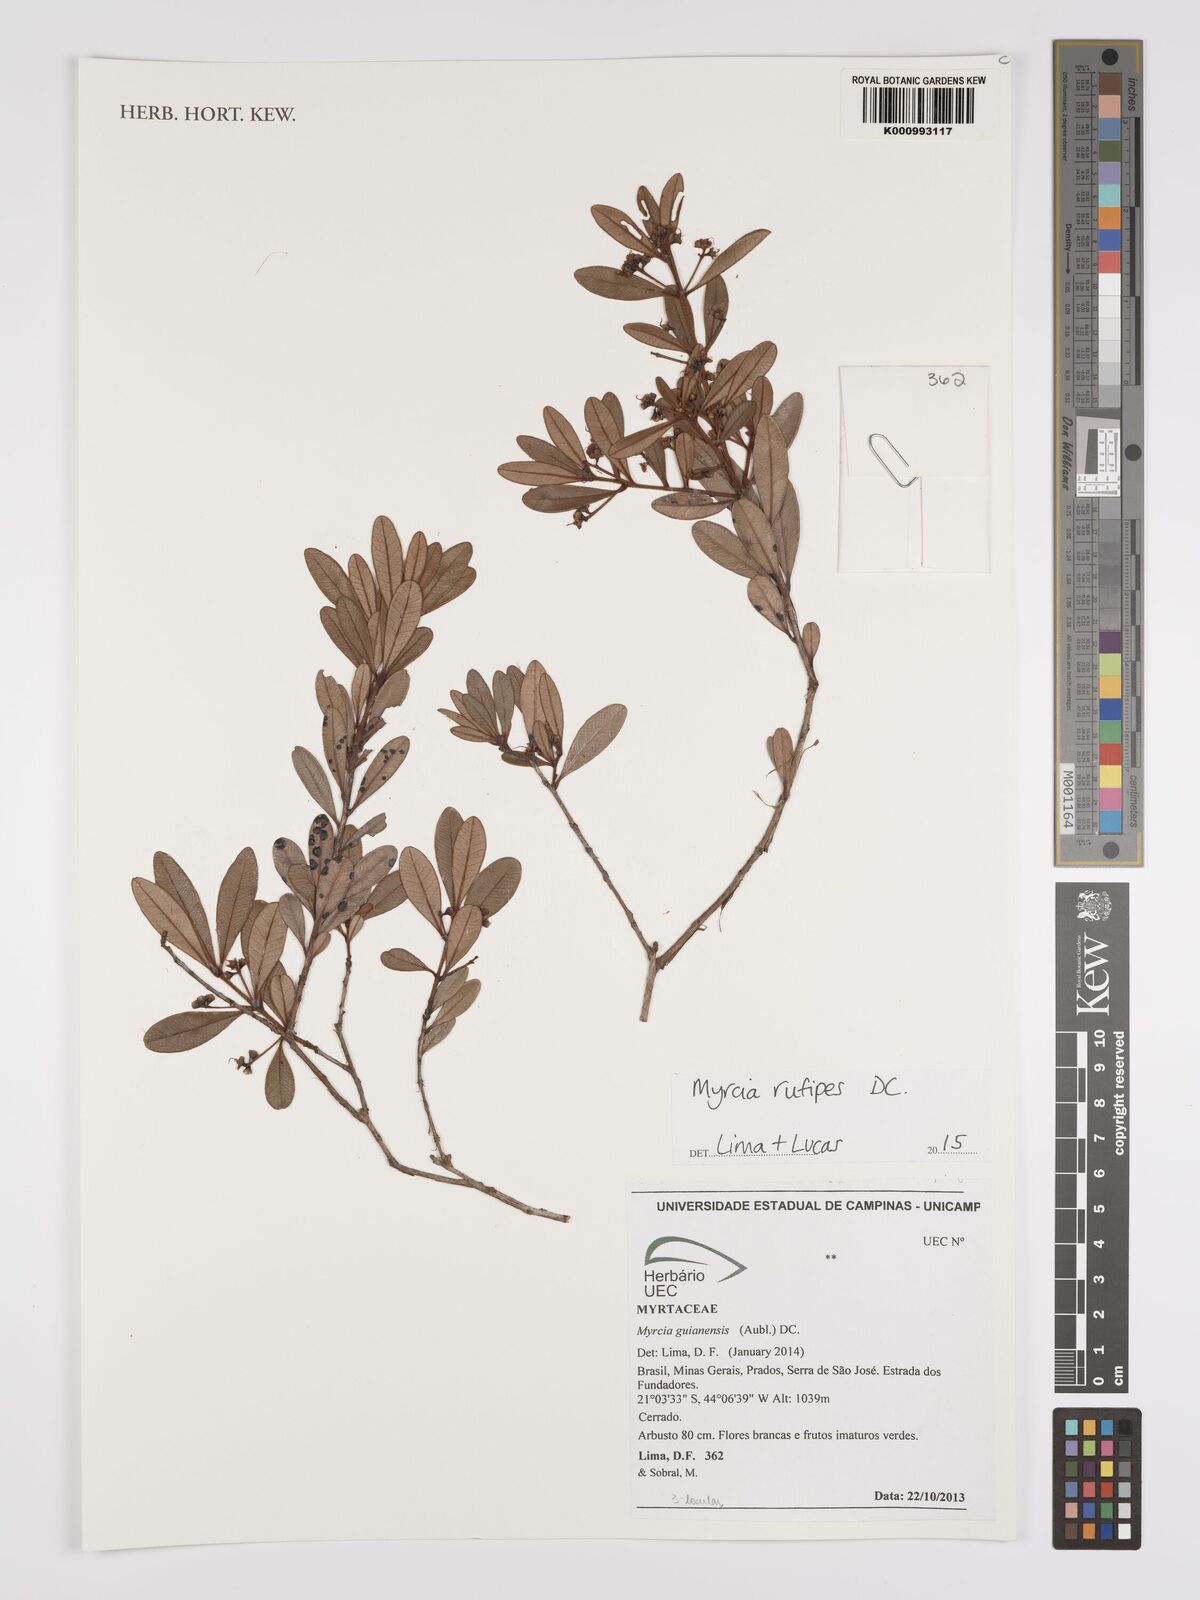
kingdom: Plantae
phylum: Tracheophyta
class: Magnoliopsida
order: Myrtales
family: Myrtaceae
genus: Myrcia
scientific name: Myrcia rufipes
